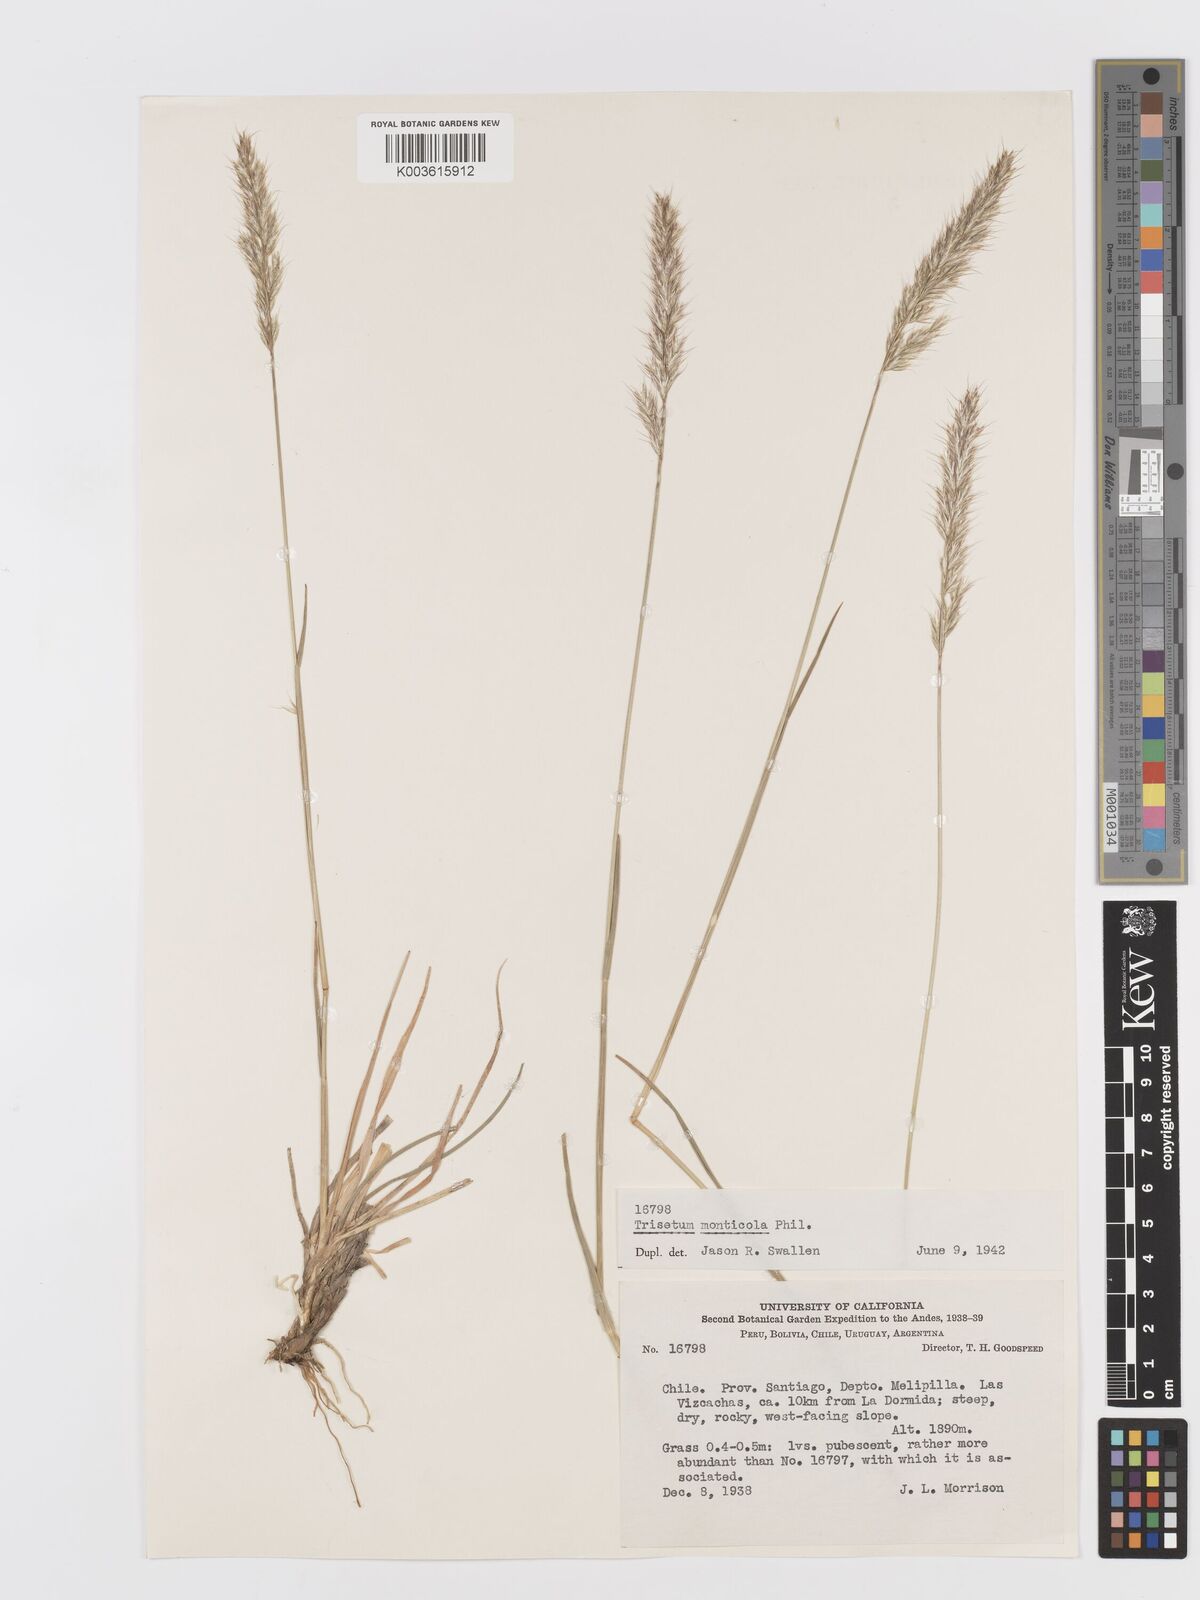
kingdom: Plantae
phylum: Tracheophyta
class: Liliopsida
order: Poales
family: Poaceae
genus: Trisetum
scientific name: Trisetum caudulatum
